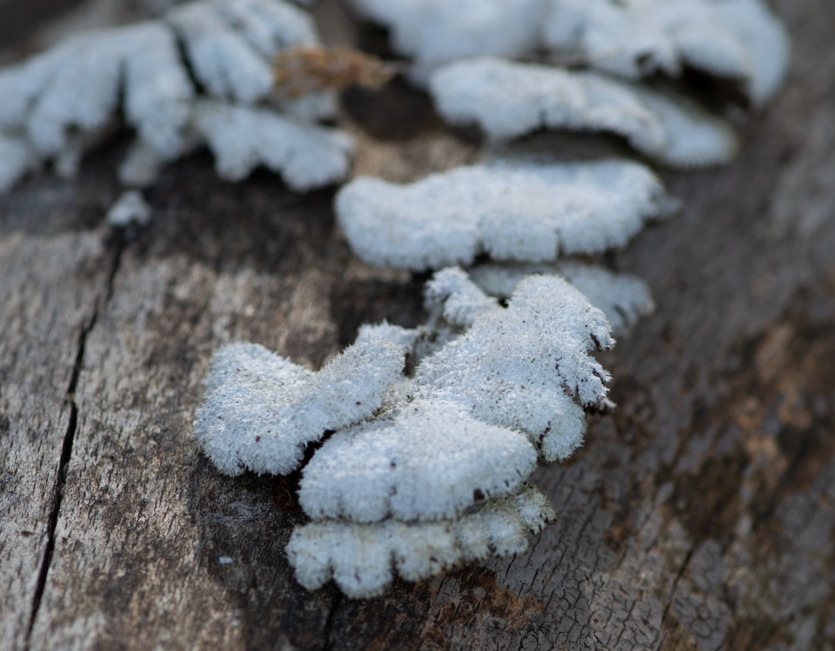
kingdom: Fungi
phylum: Basidiomycota
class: Agaricomycetes
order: Agaricales
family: Schizophyllaceae
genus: Schizophyllum
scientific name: Schizophyllum commune
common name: Kløvblad
